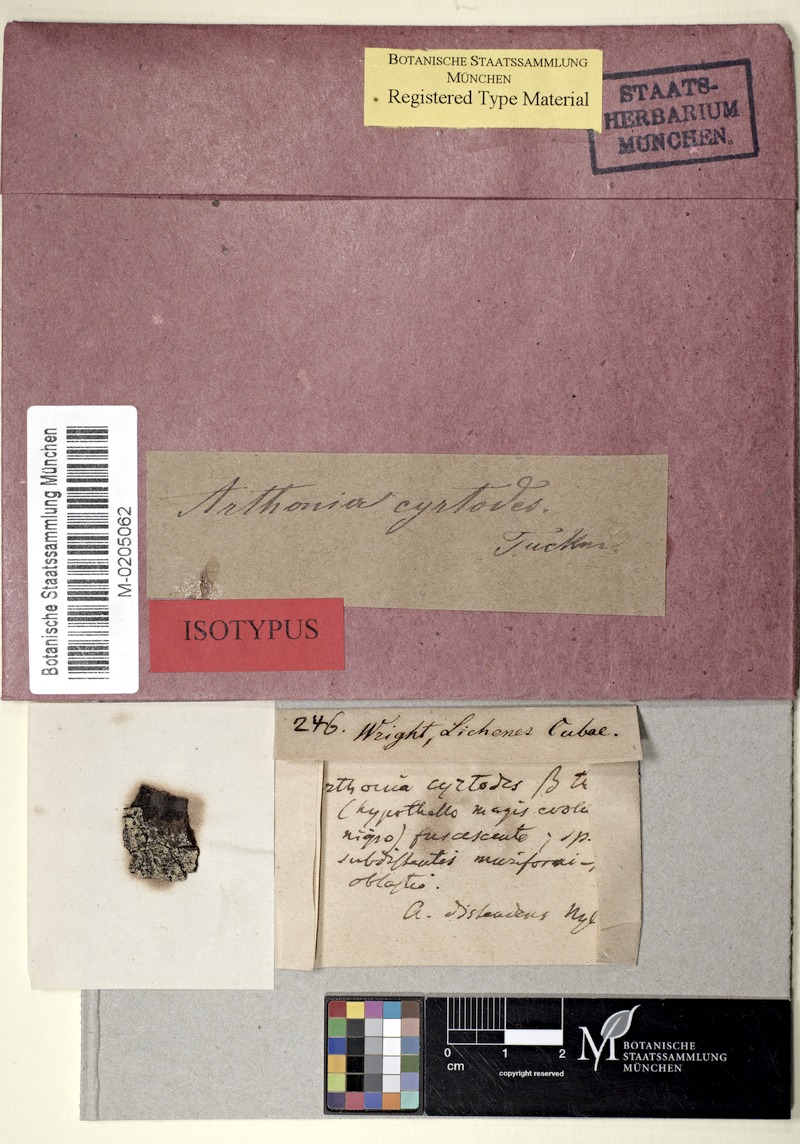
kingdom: Fungi
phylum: Ascomycota
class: Arthoniomycetes
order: Arthoniales
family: Arthoniaceae
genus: Arthothelium
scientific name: Arthothelium distendens
